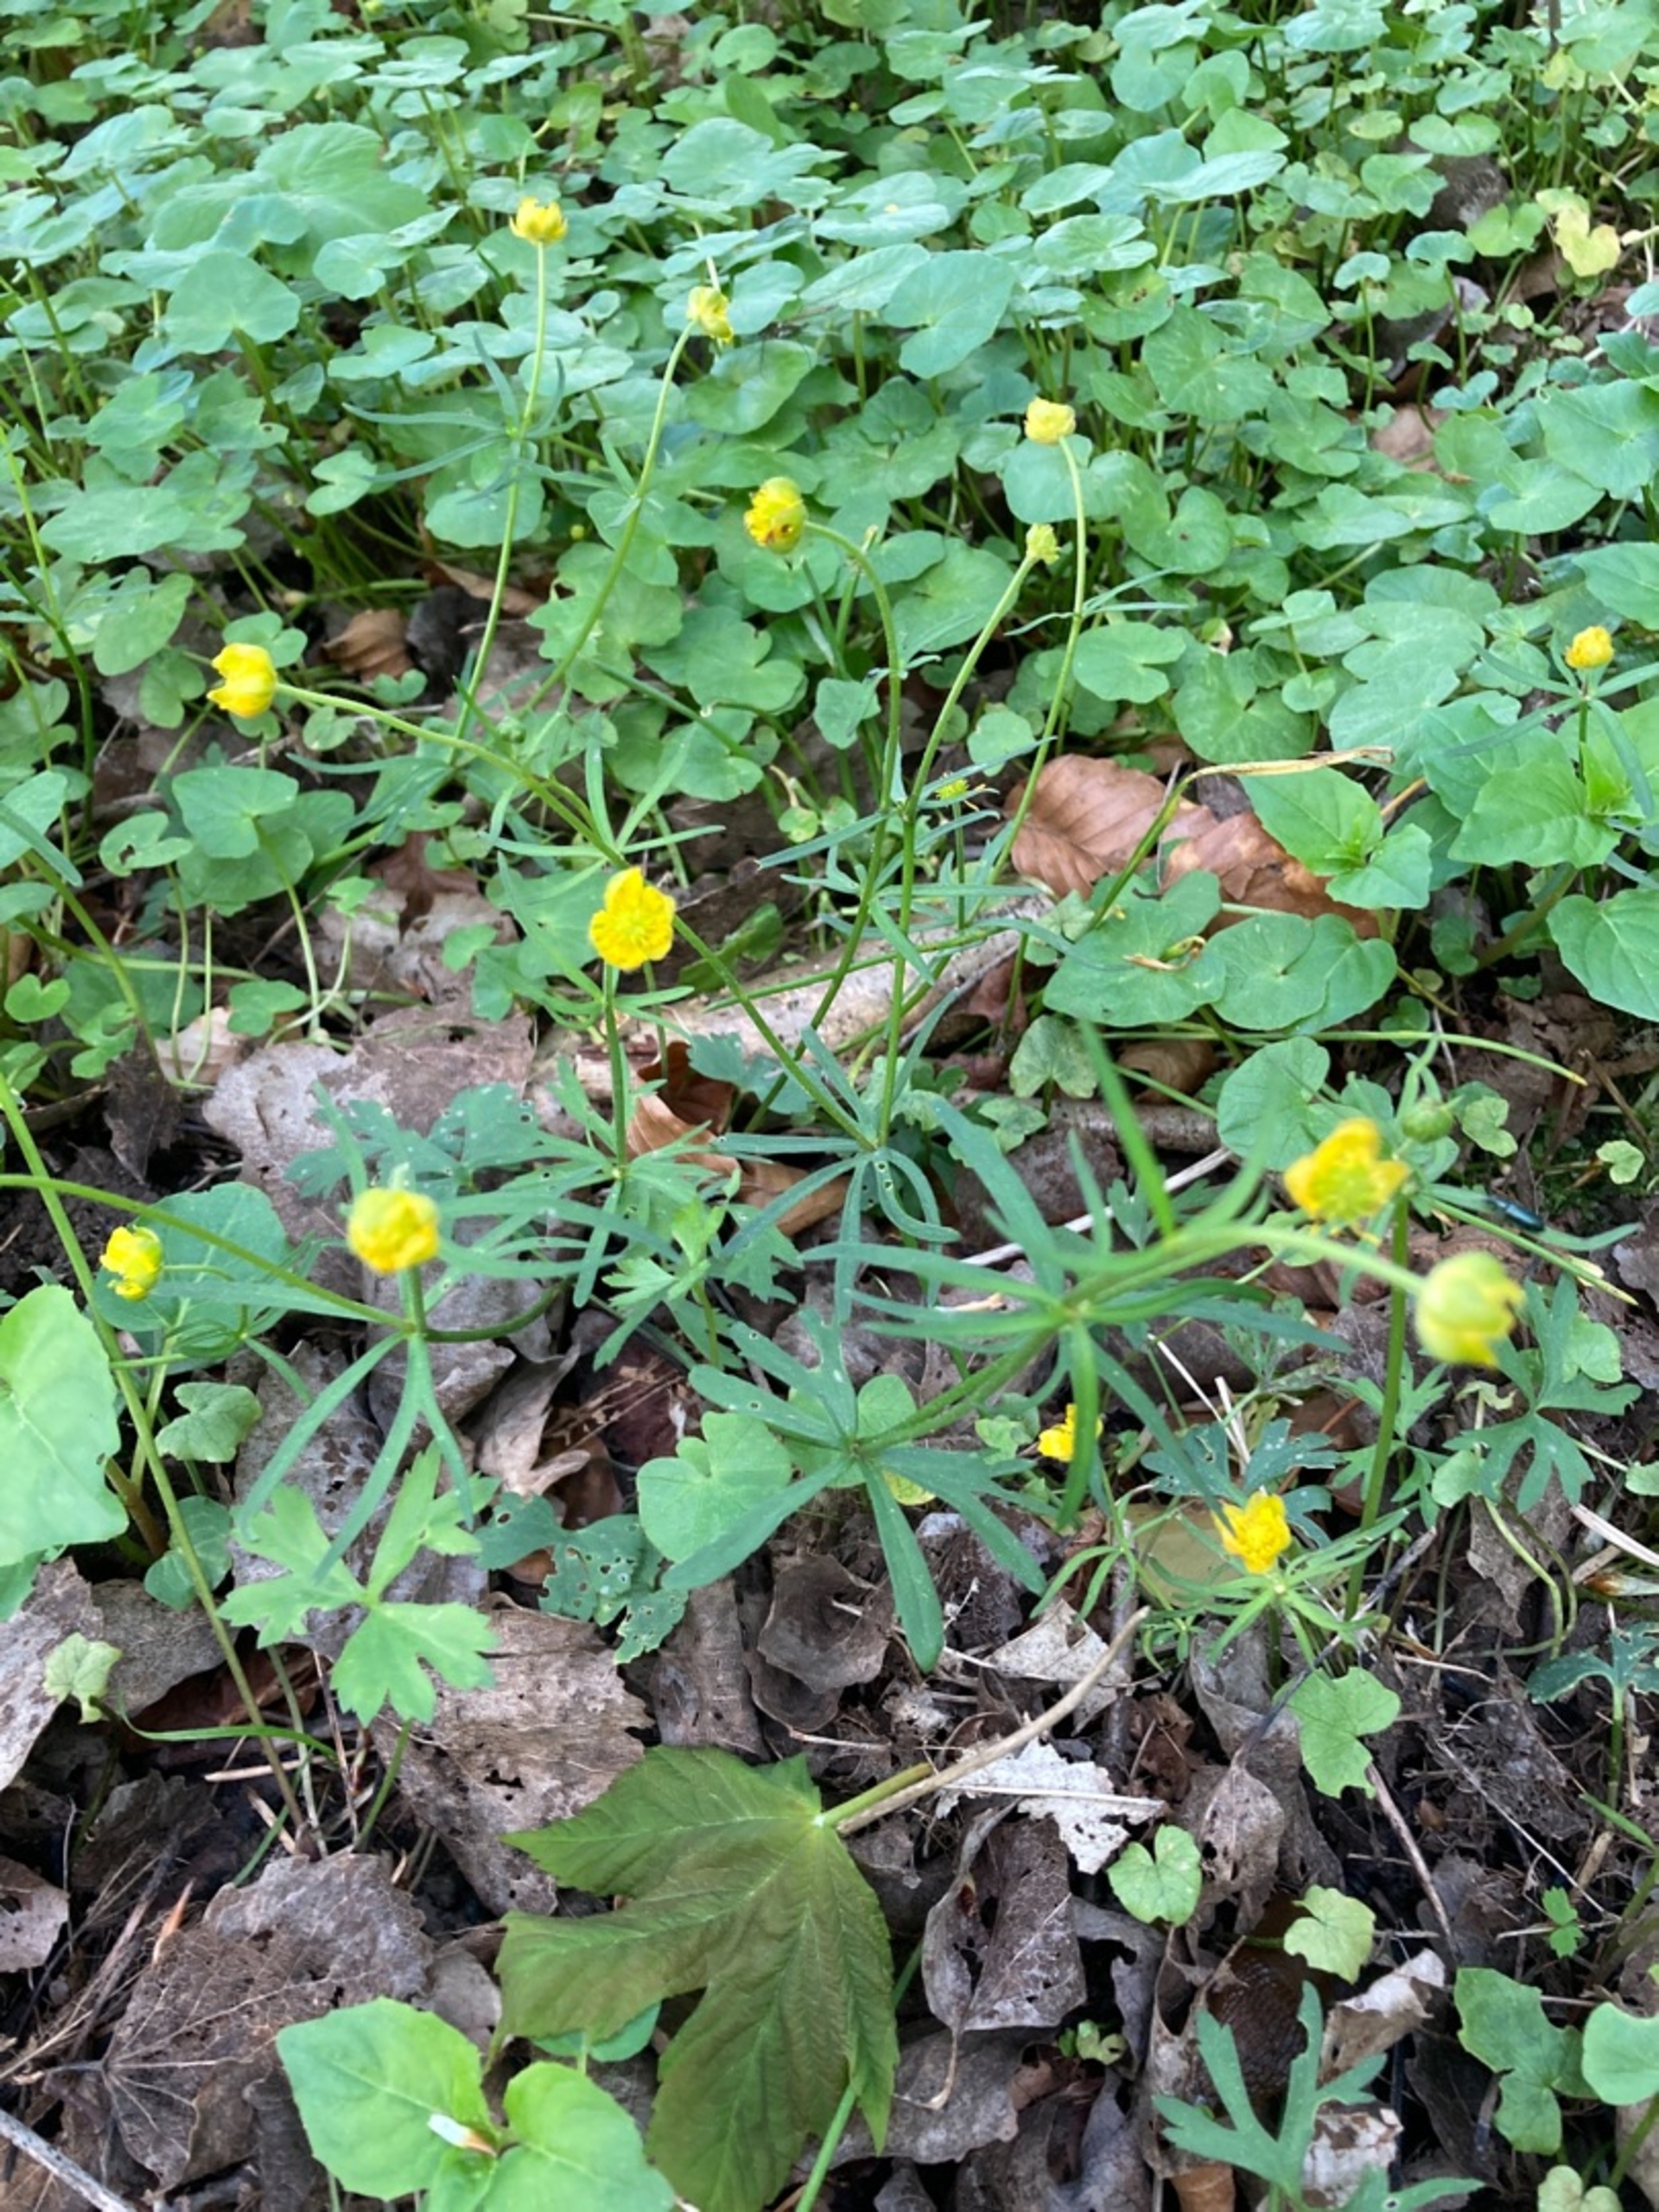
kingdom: Plantae
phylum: Tracheophyta
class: Magnoliopsida
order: Ranunculales
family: Ranunculaceae
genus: Ranunculus
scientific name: Ranunculus auricomus
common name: Nyrebladet ranunkel
